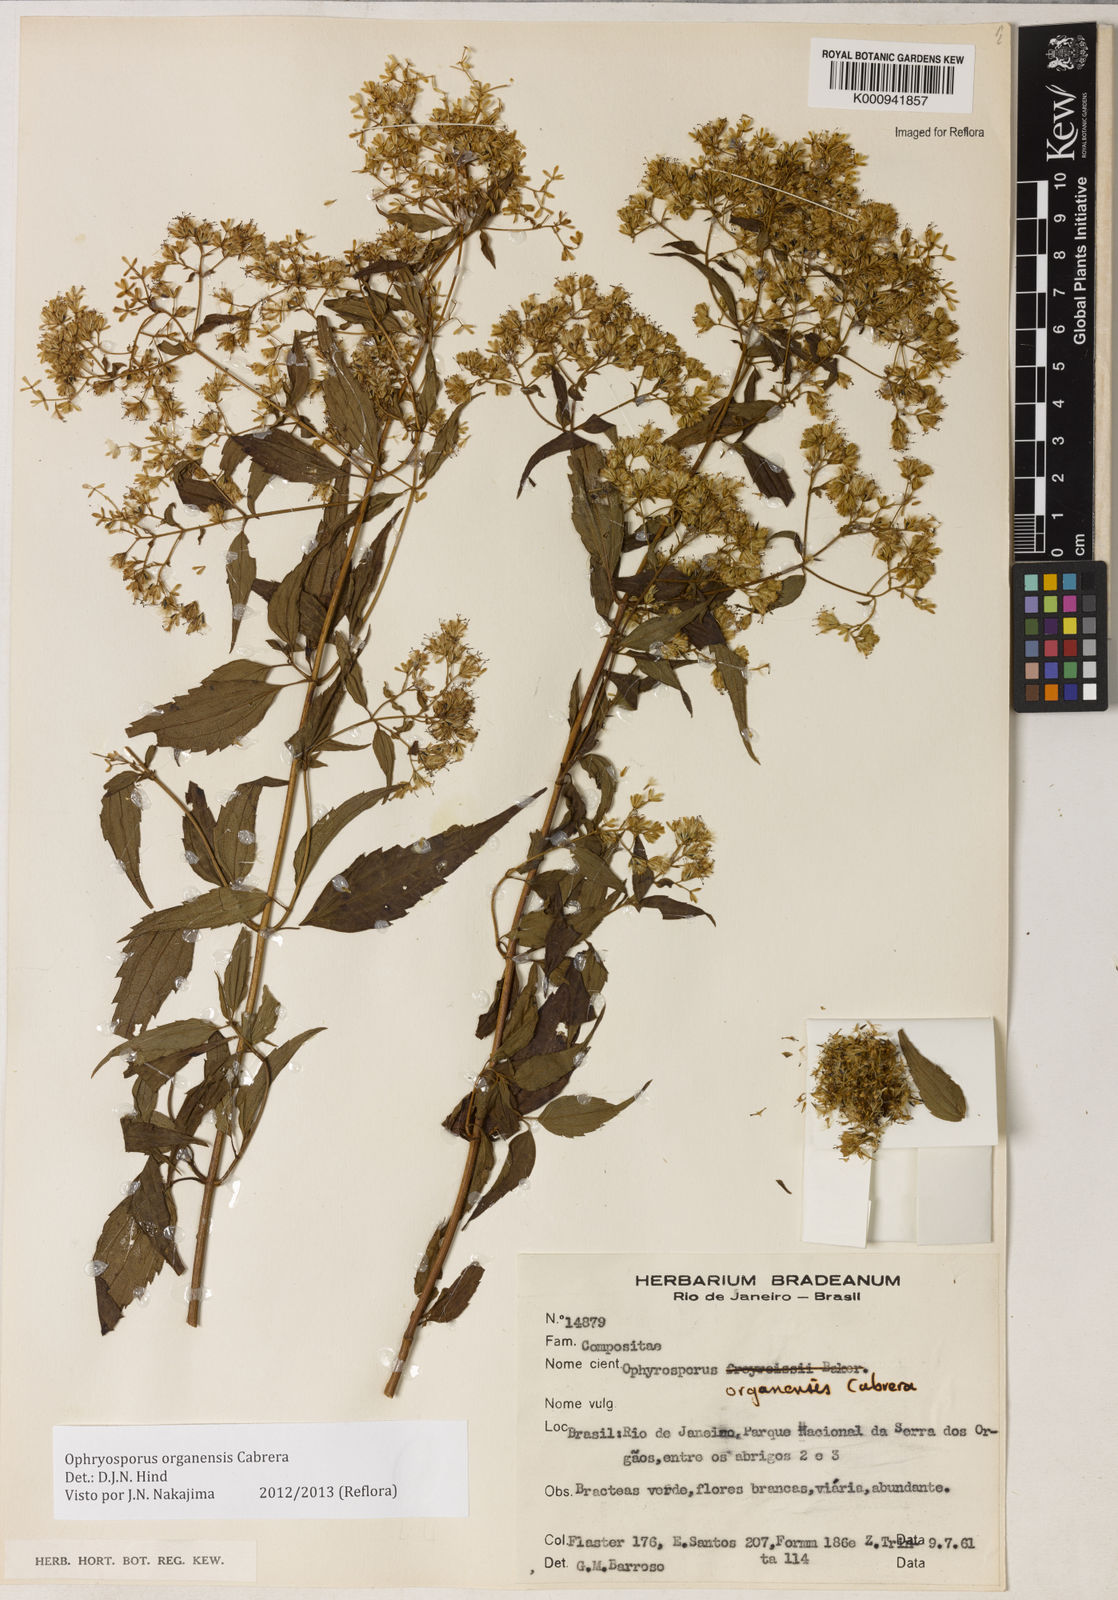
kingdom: Plantae
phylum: Tracheophyta
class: Magnoliopsida
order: Asterales
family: Asteraceae
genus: Ophryosporus
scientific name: Ophryosporus organensis
